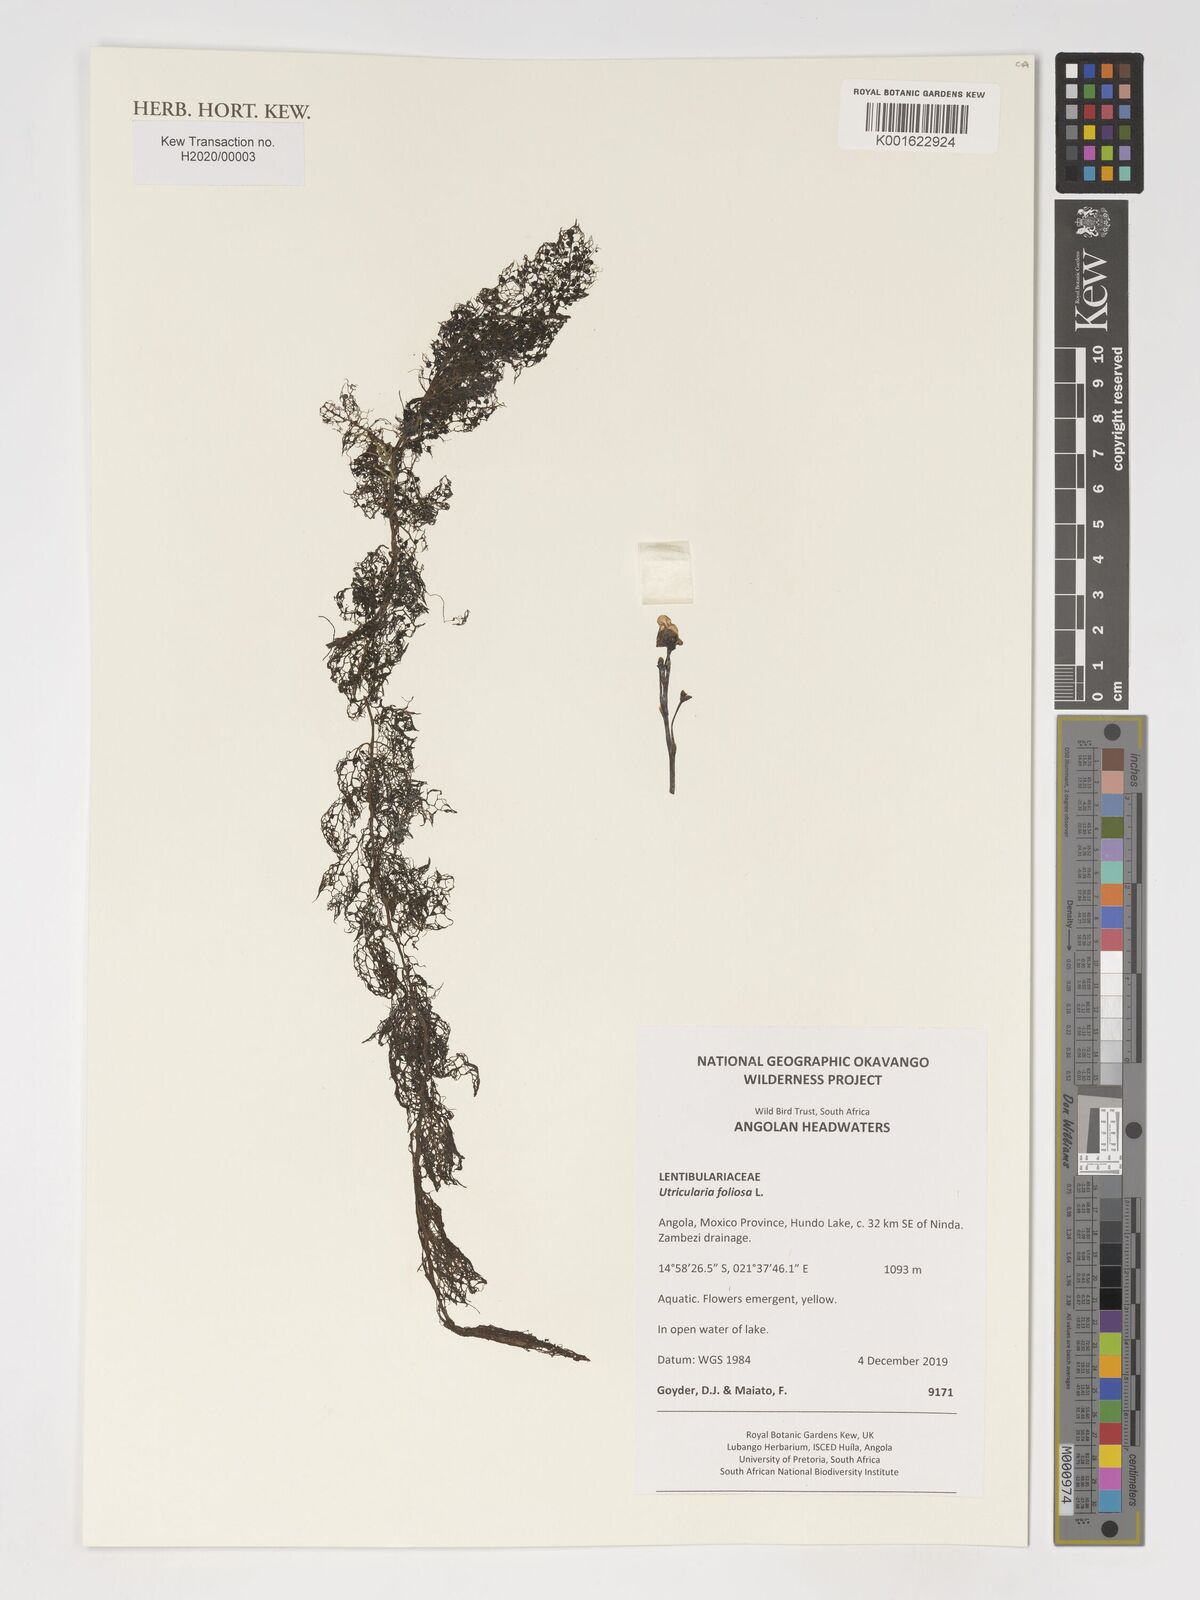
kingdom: Plantae
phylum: Tracheophyta
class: Magnoliopsida
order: Lamiales
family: Lentibulariaceae
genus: Utricularia
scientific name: Utricularia foliosa
